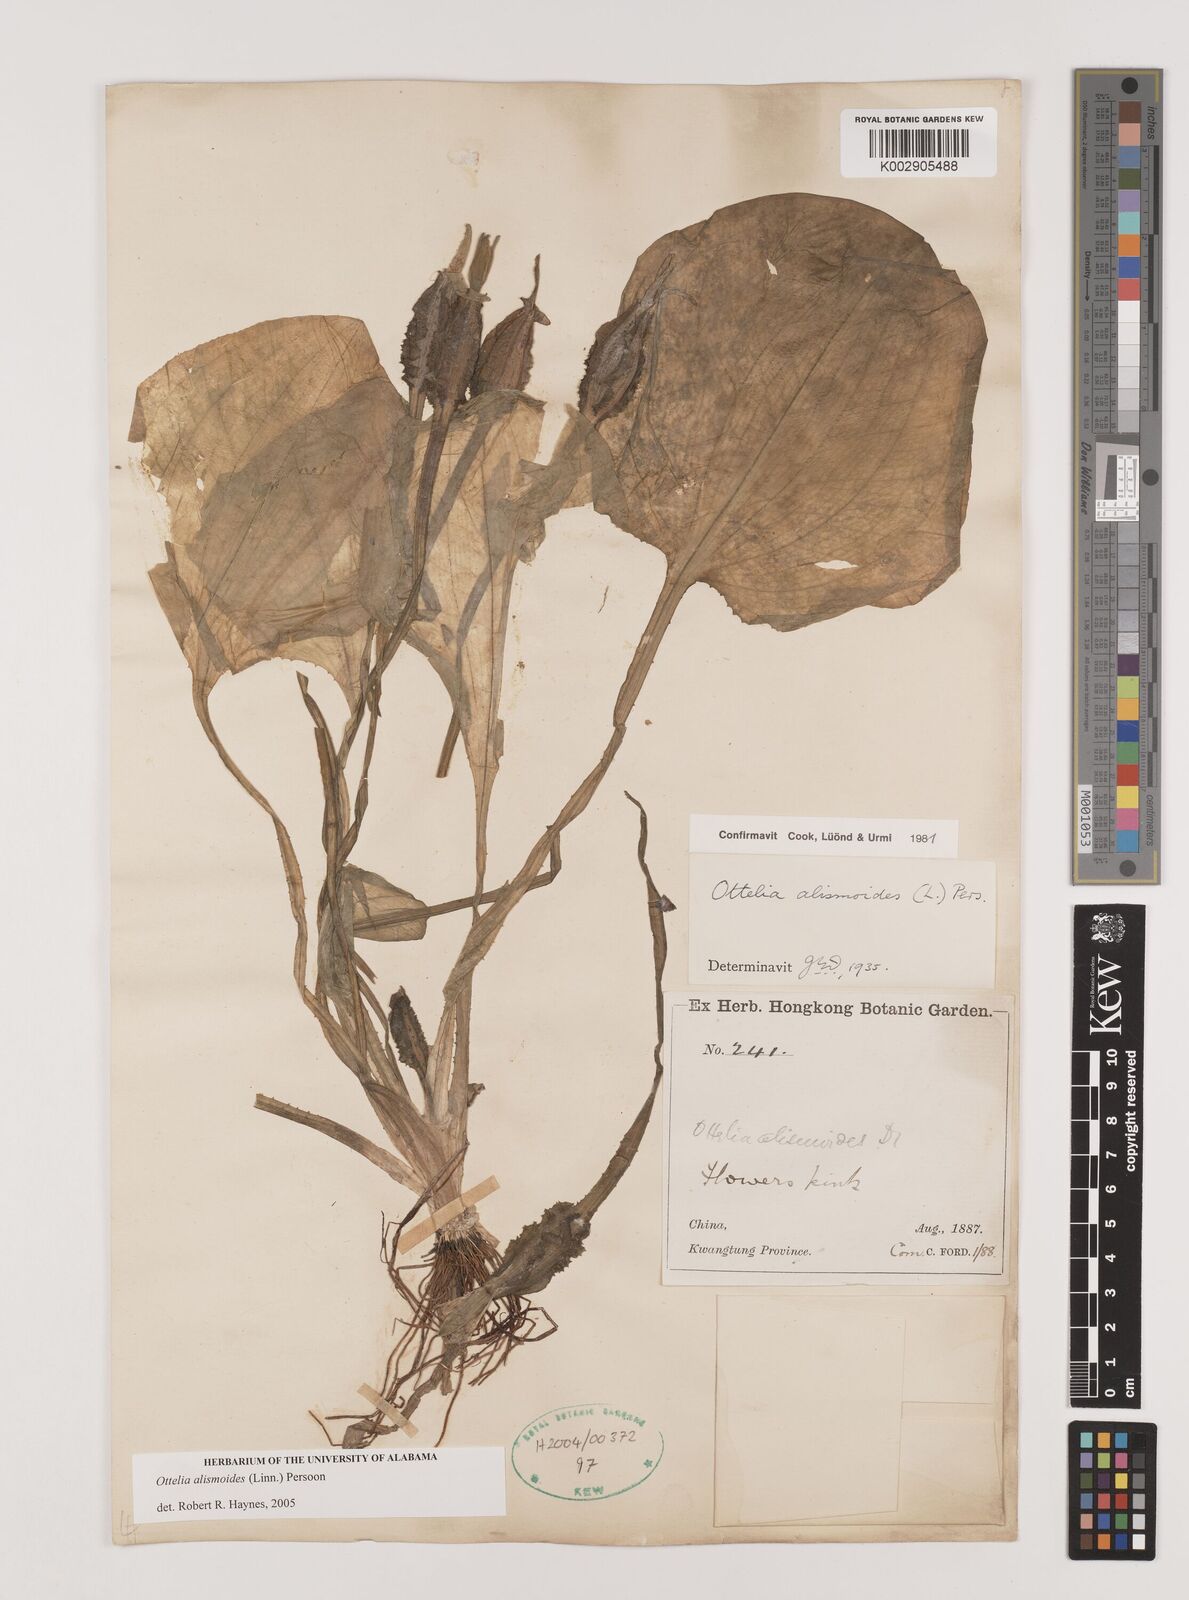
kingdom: Plantae
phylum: Tracheophyta
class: Liliopsida
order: Alismatales
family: Hydrocharitaceae
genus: Ottelia
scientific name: Ottelia alismoides
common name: Duck-lettuce
